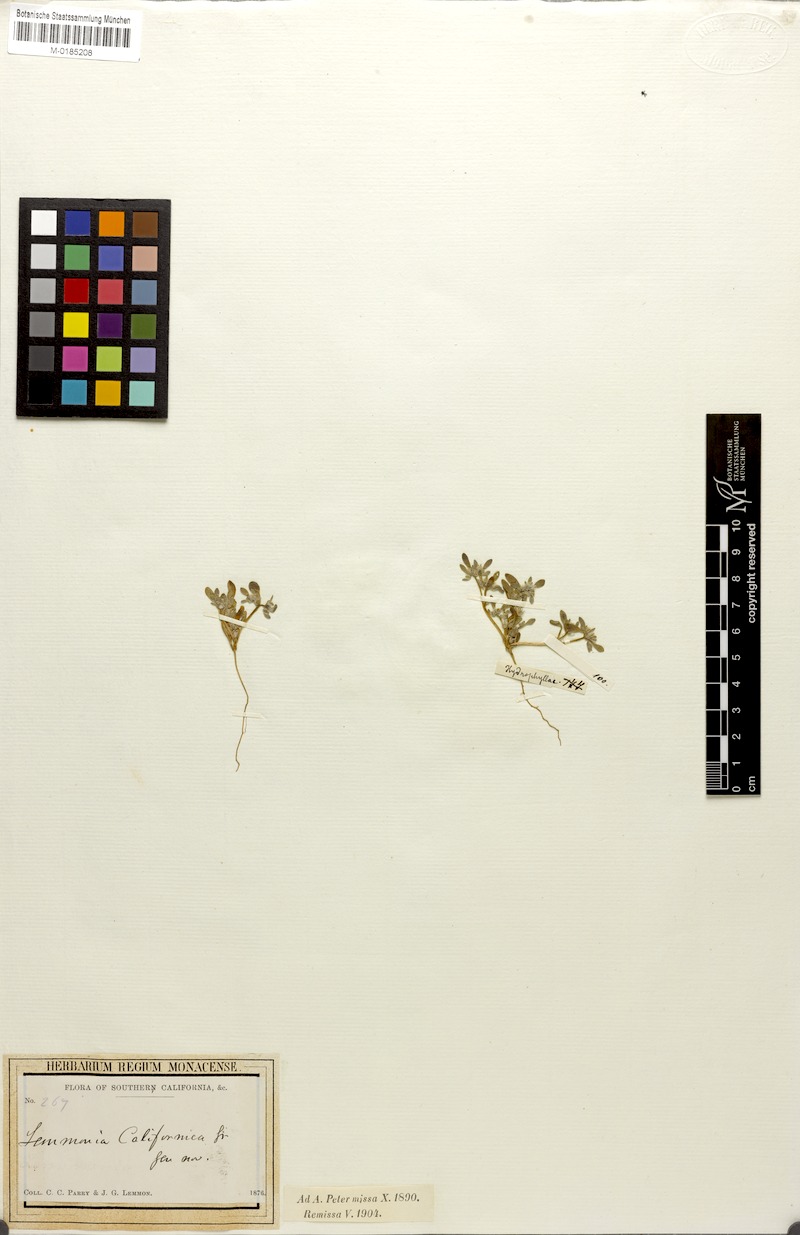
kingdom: Plantae
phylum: Tracheophyta
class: Magnoliopsida
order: Boraginales
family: Namaceae
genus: Nama
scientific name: Nama californicum
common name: California fiddleleaf
